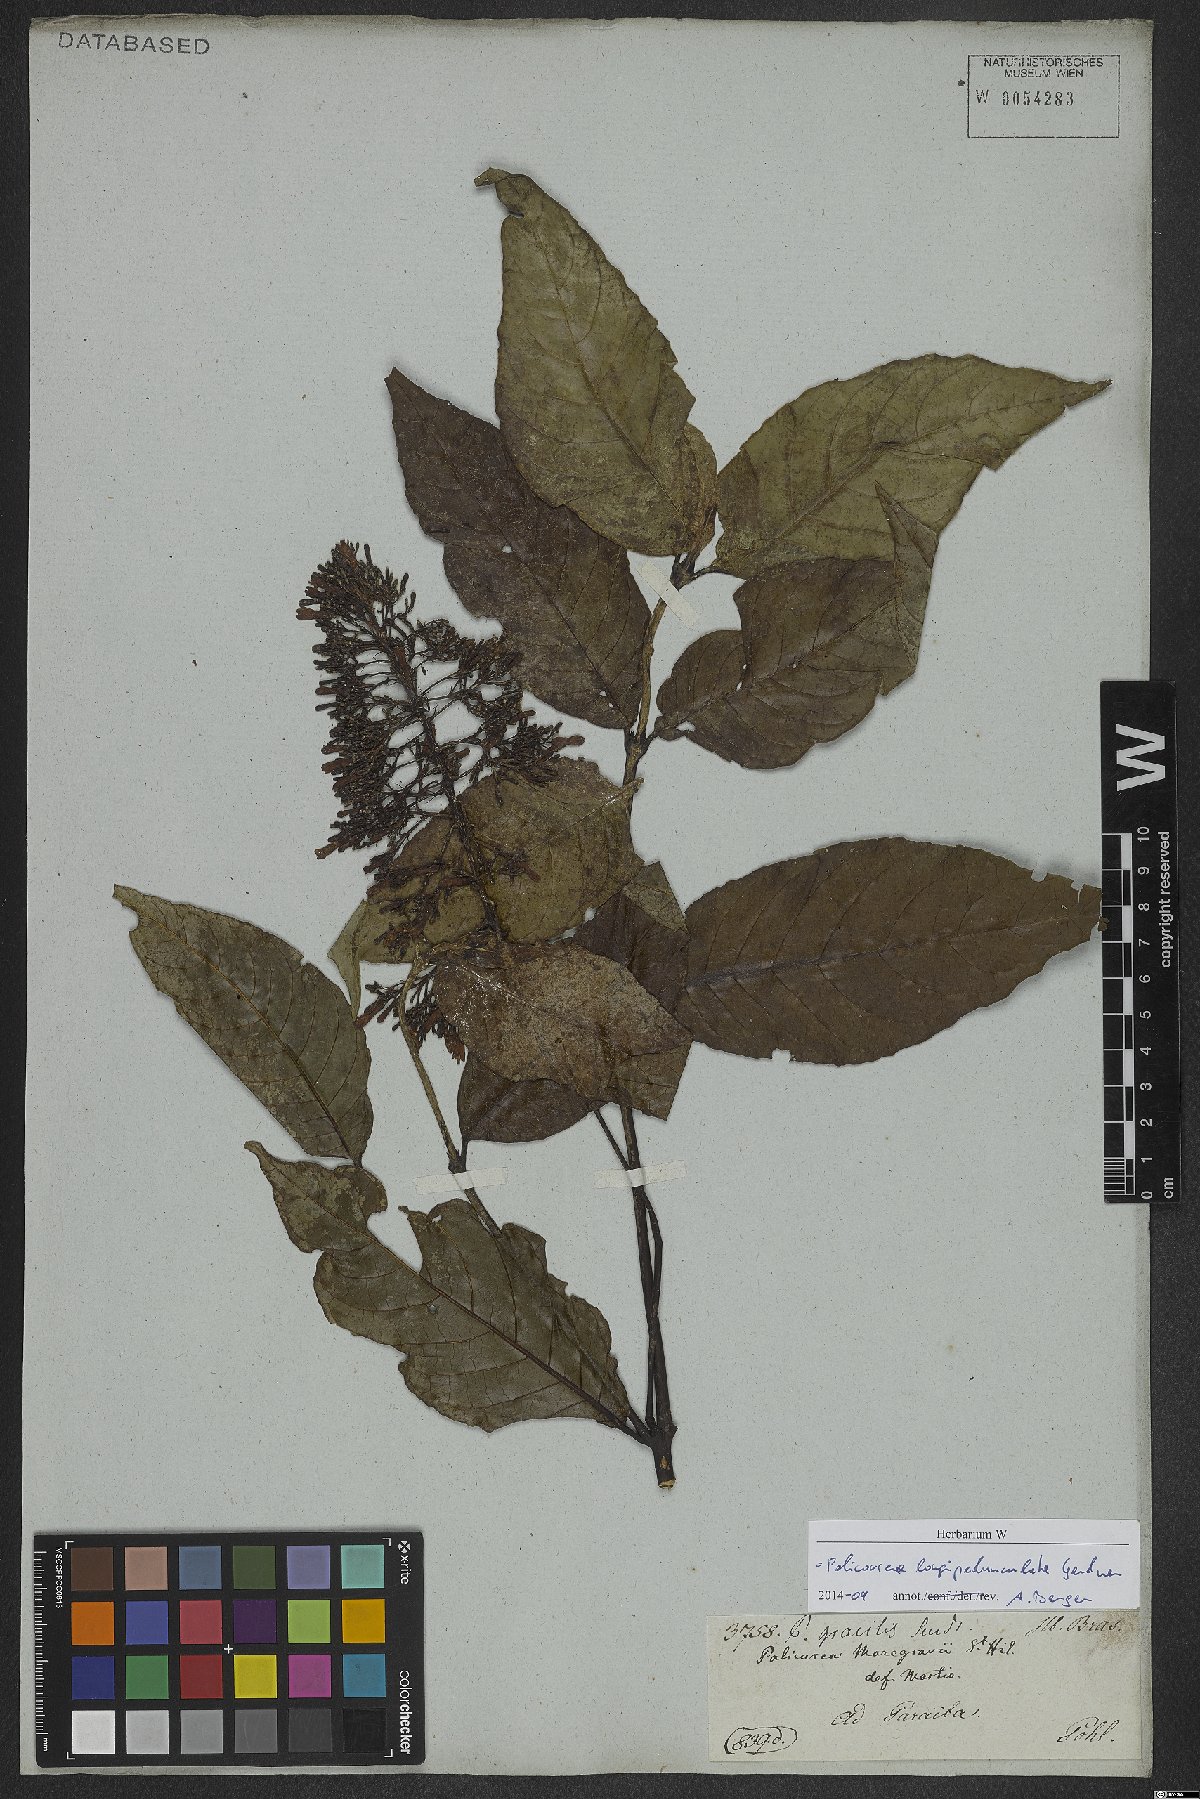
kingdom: Plantae
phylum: Tracheophyta
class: Magnoliopsida
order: Gentianales
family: Rubiaceae
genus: Palicourea
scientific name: Palicourea longipedunculata
